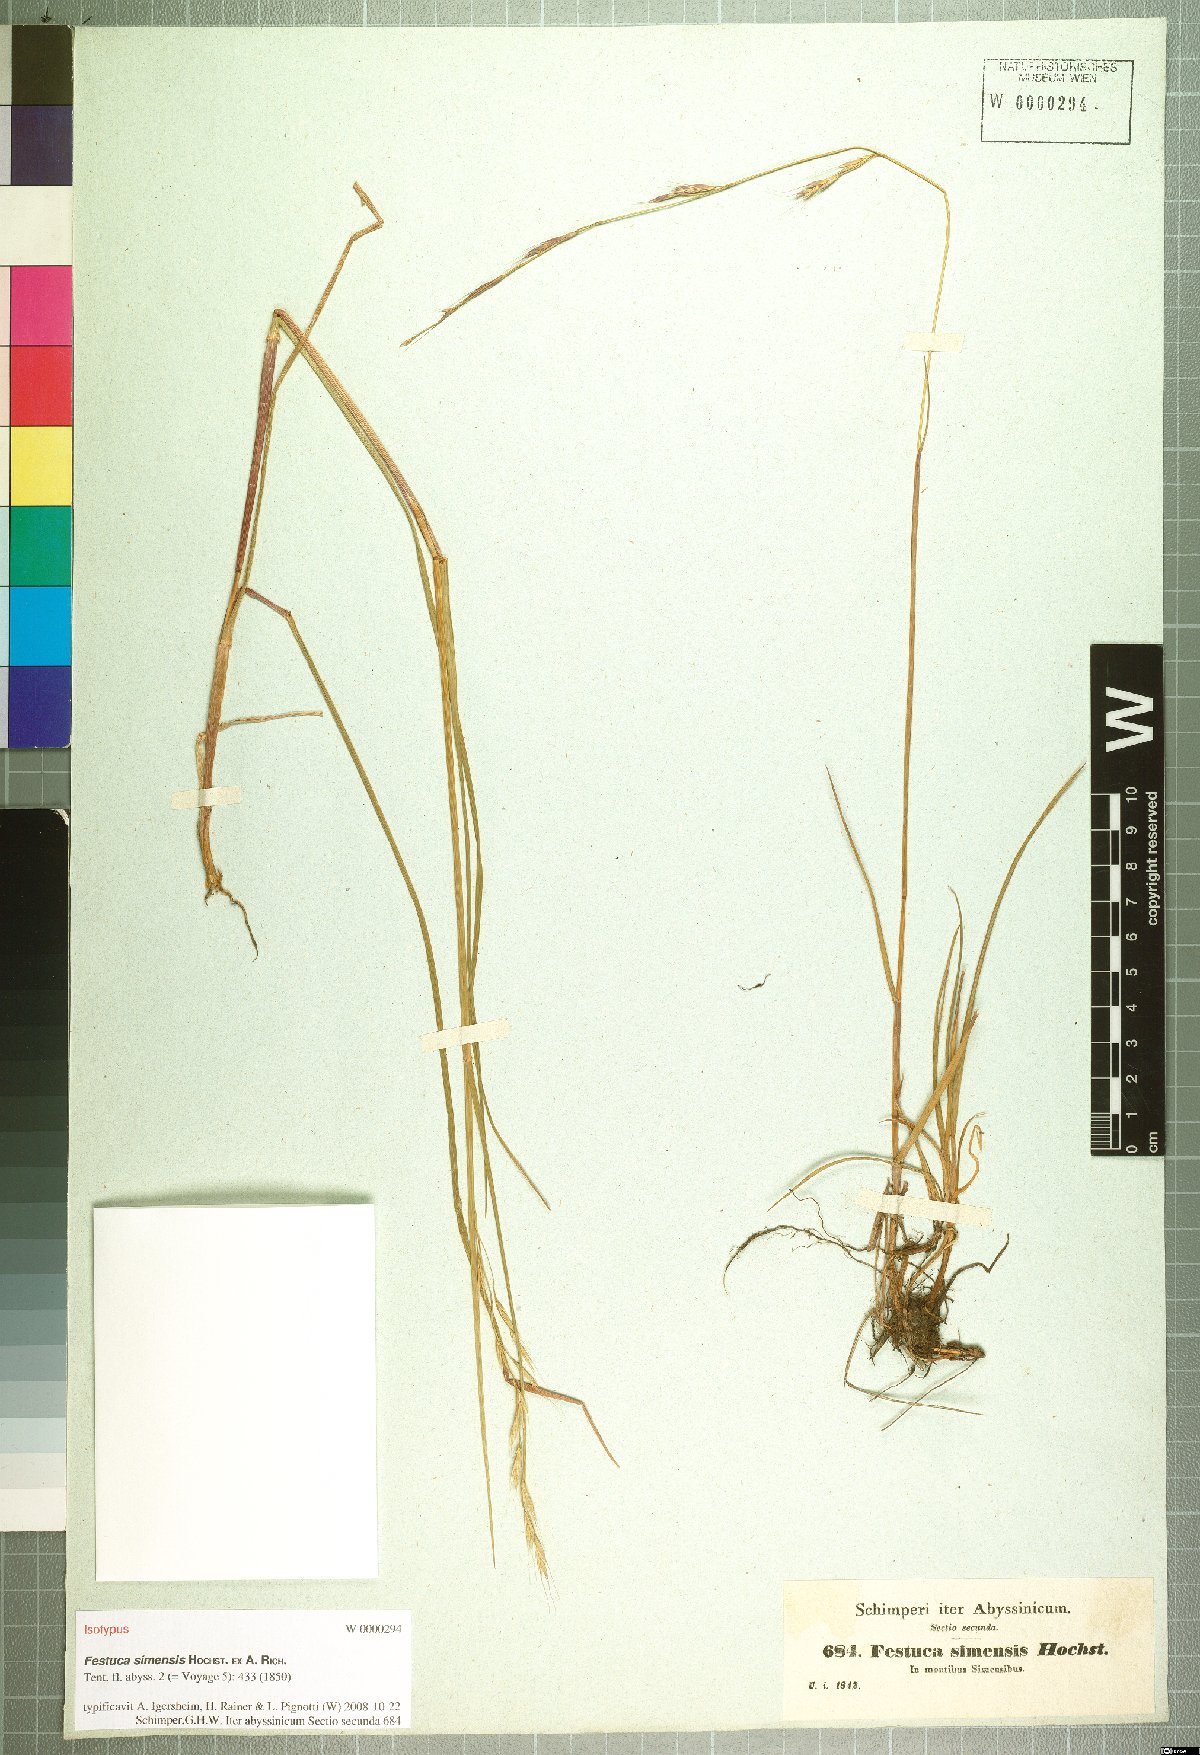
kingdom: Plantae
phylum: Tracheophyta
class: Liliopsida
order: Poales
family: Poaceae
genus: Festuca
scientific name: Festuca simensis
